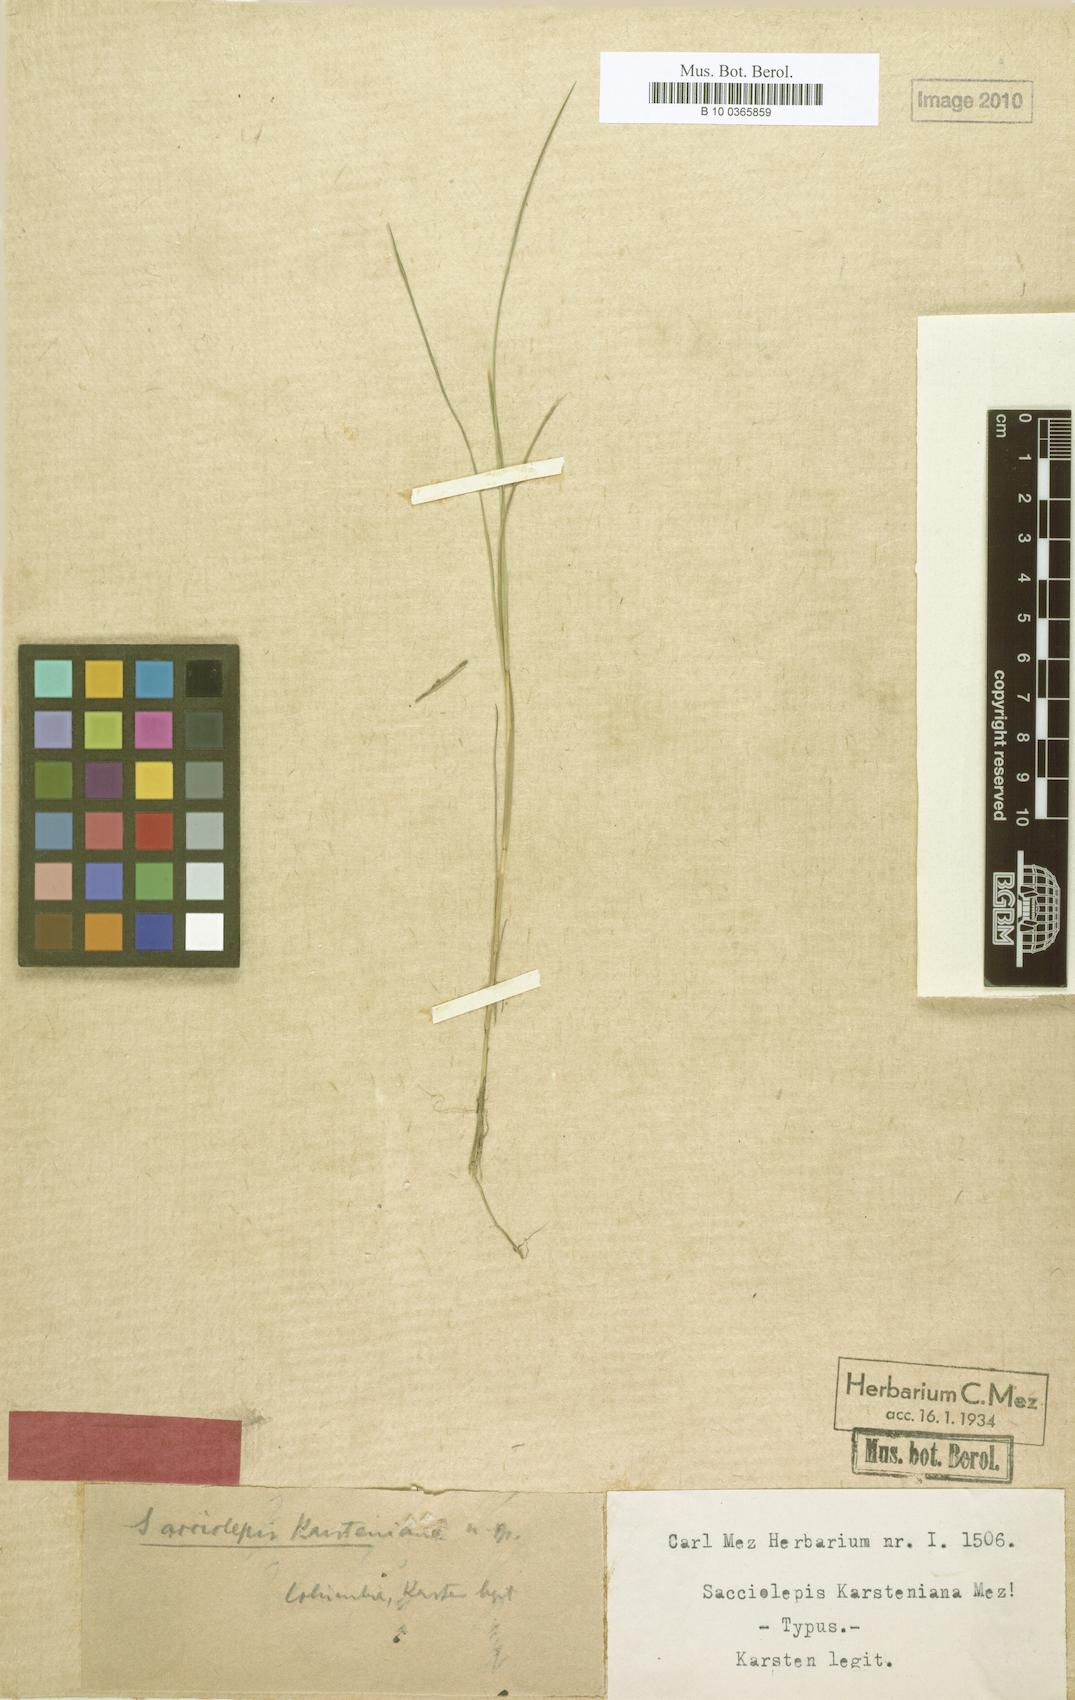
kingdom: Plantae
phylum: Tracheophyta
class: Liliopsida
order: Poales
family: Poaceae
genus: Sacciolepis
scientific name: Sacciolepis angustissima
